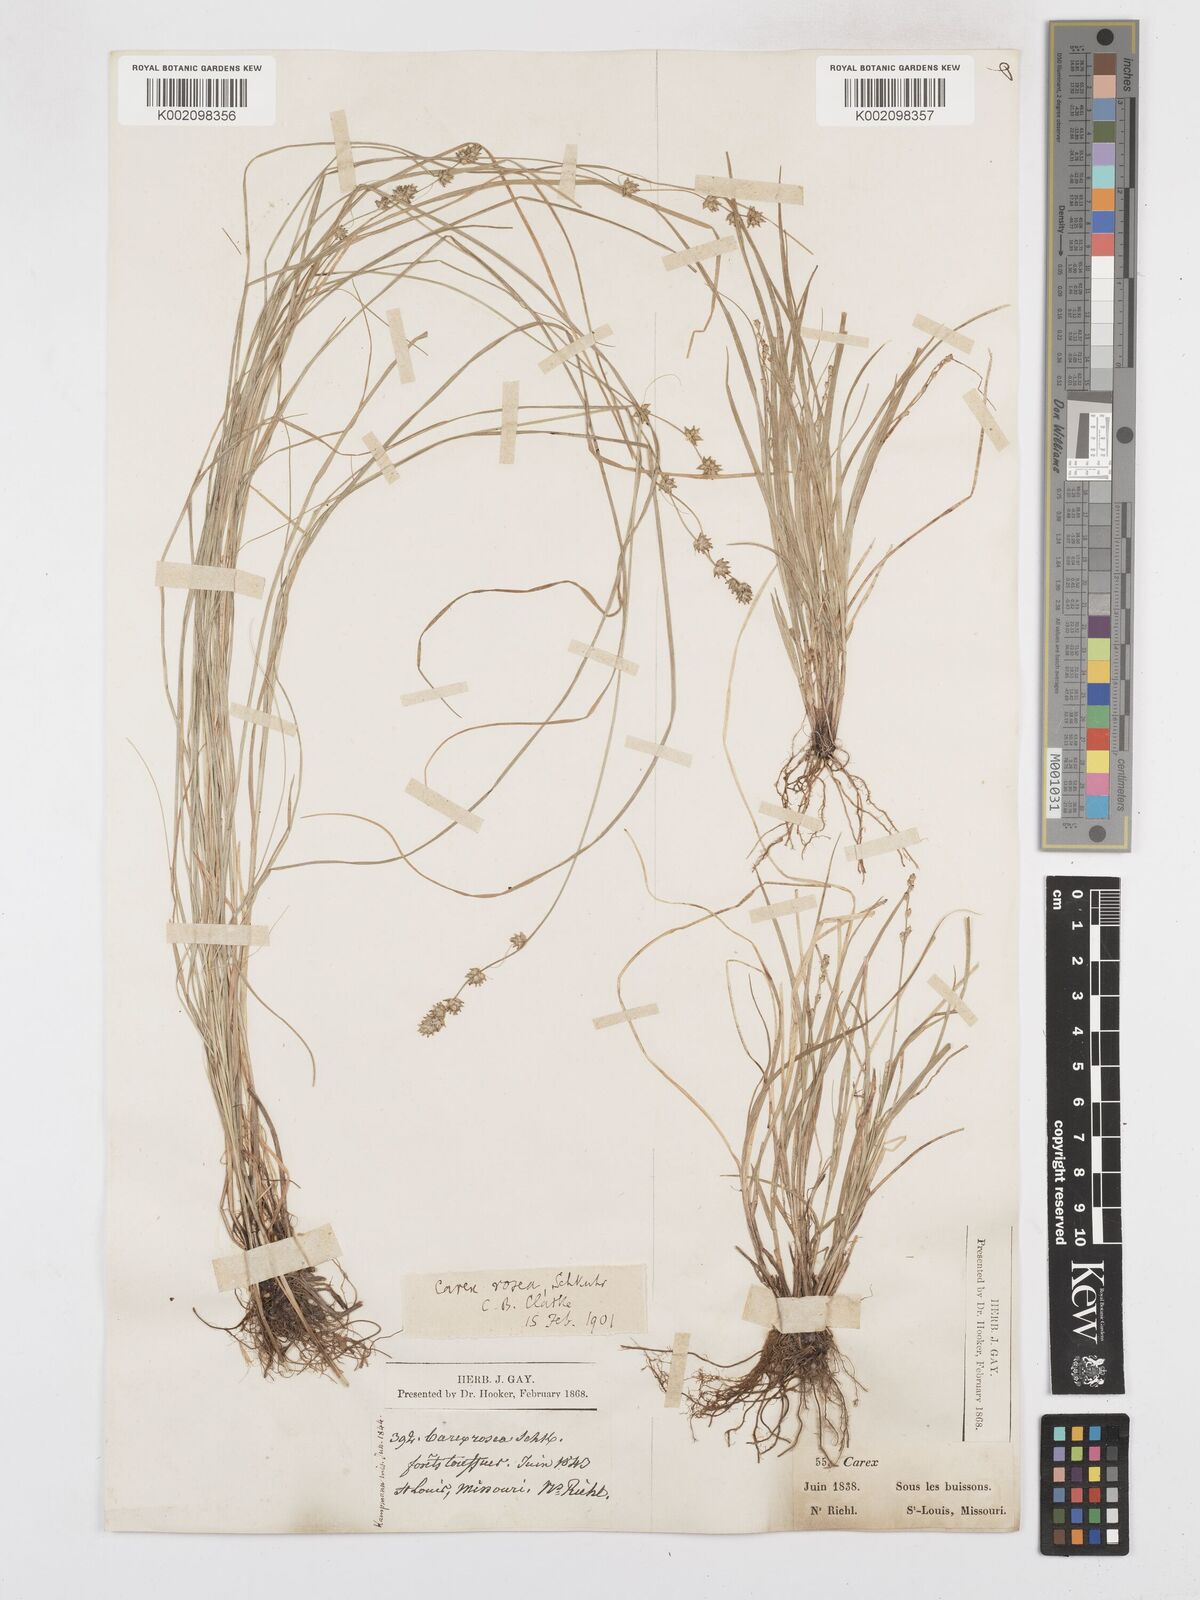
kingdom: Plantae
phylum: Tracheophyta
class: Liliopsida
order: Poales
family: Cyperaceae
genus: Carex
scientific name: Carex rosea
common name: Curly-styled wood sedge
